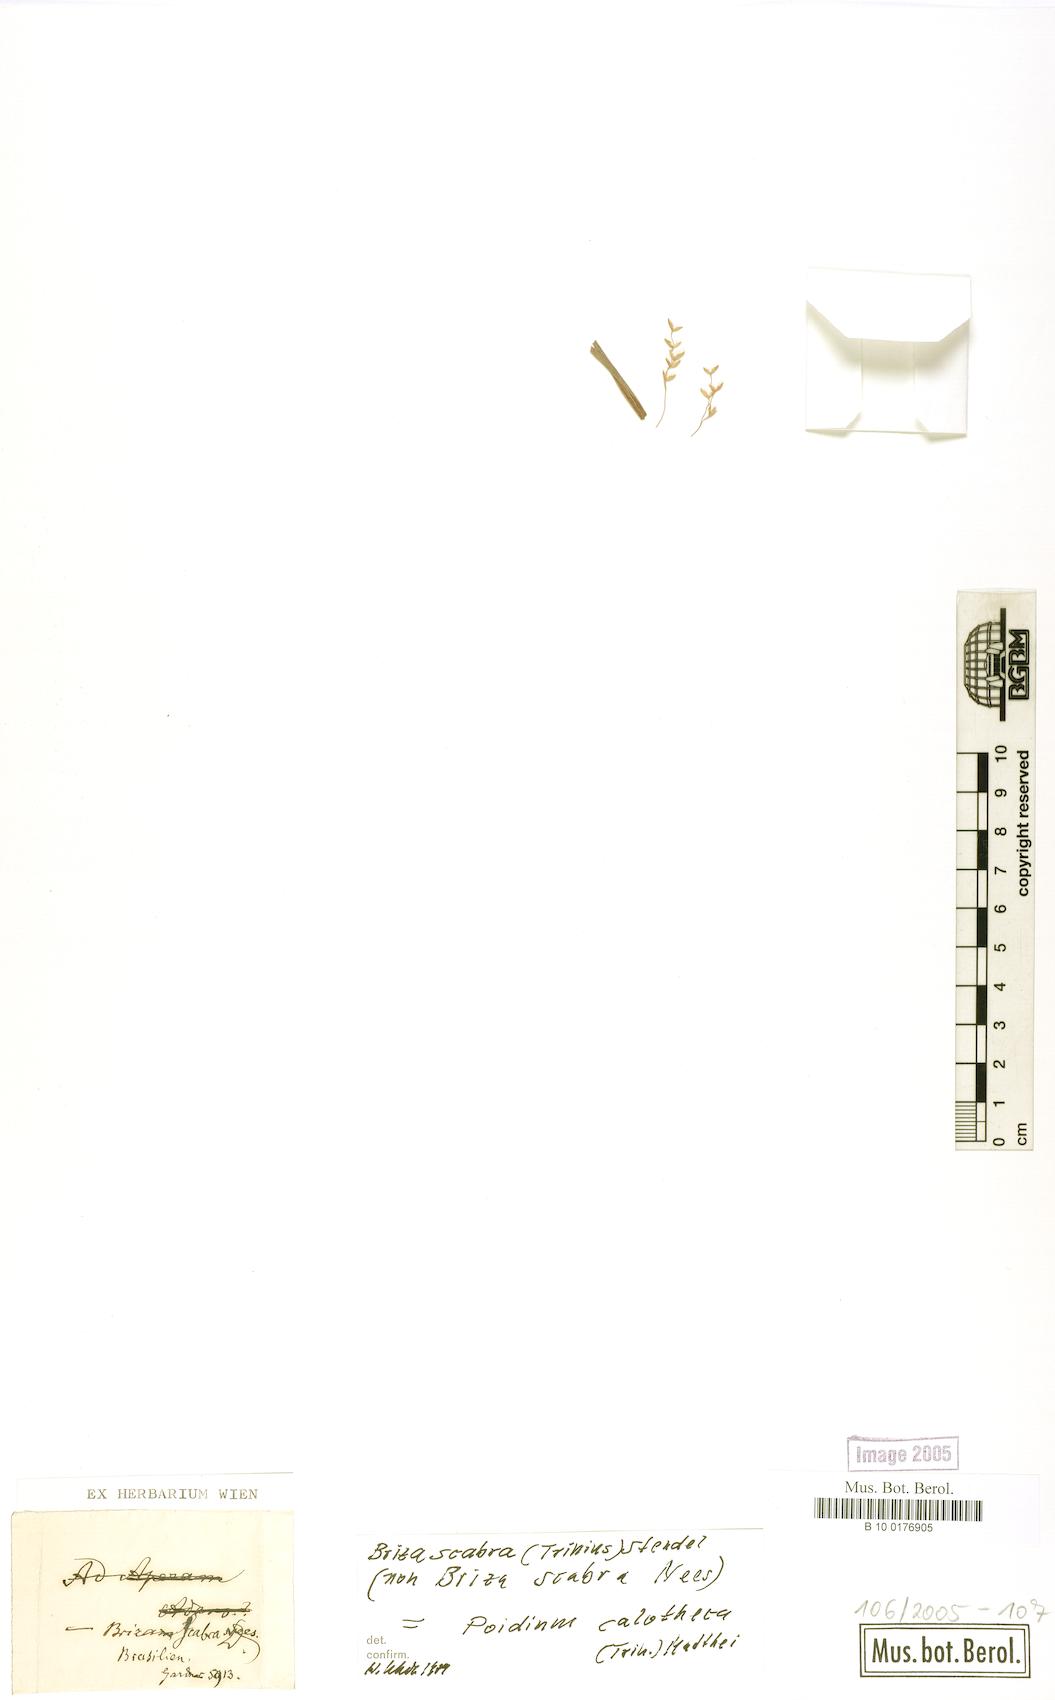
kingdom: Plantae
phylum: Tracheophyta
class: Liliopsida
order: Poales
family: Poaceae
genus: Poidium
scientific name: Poidium calotheca
